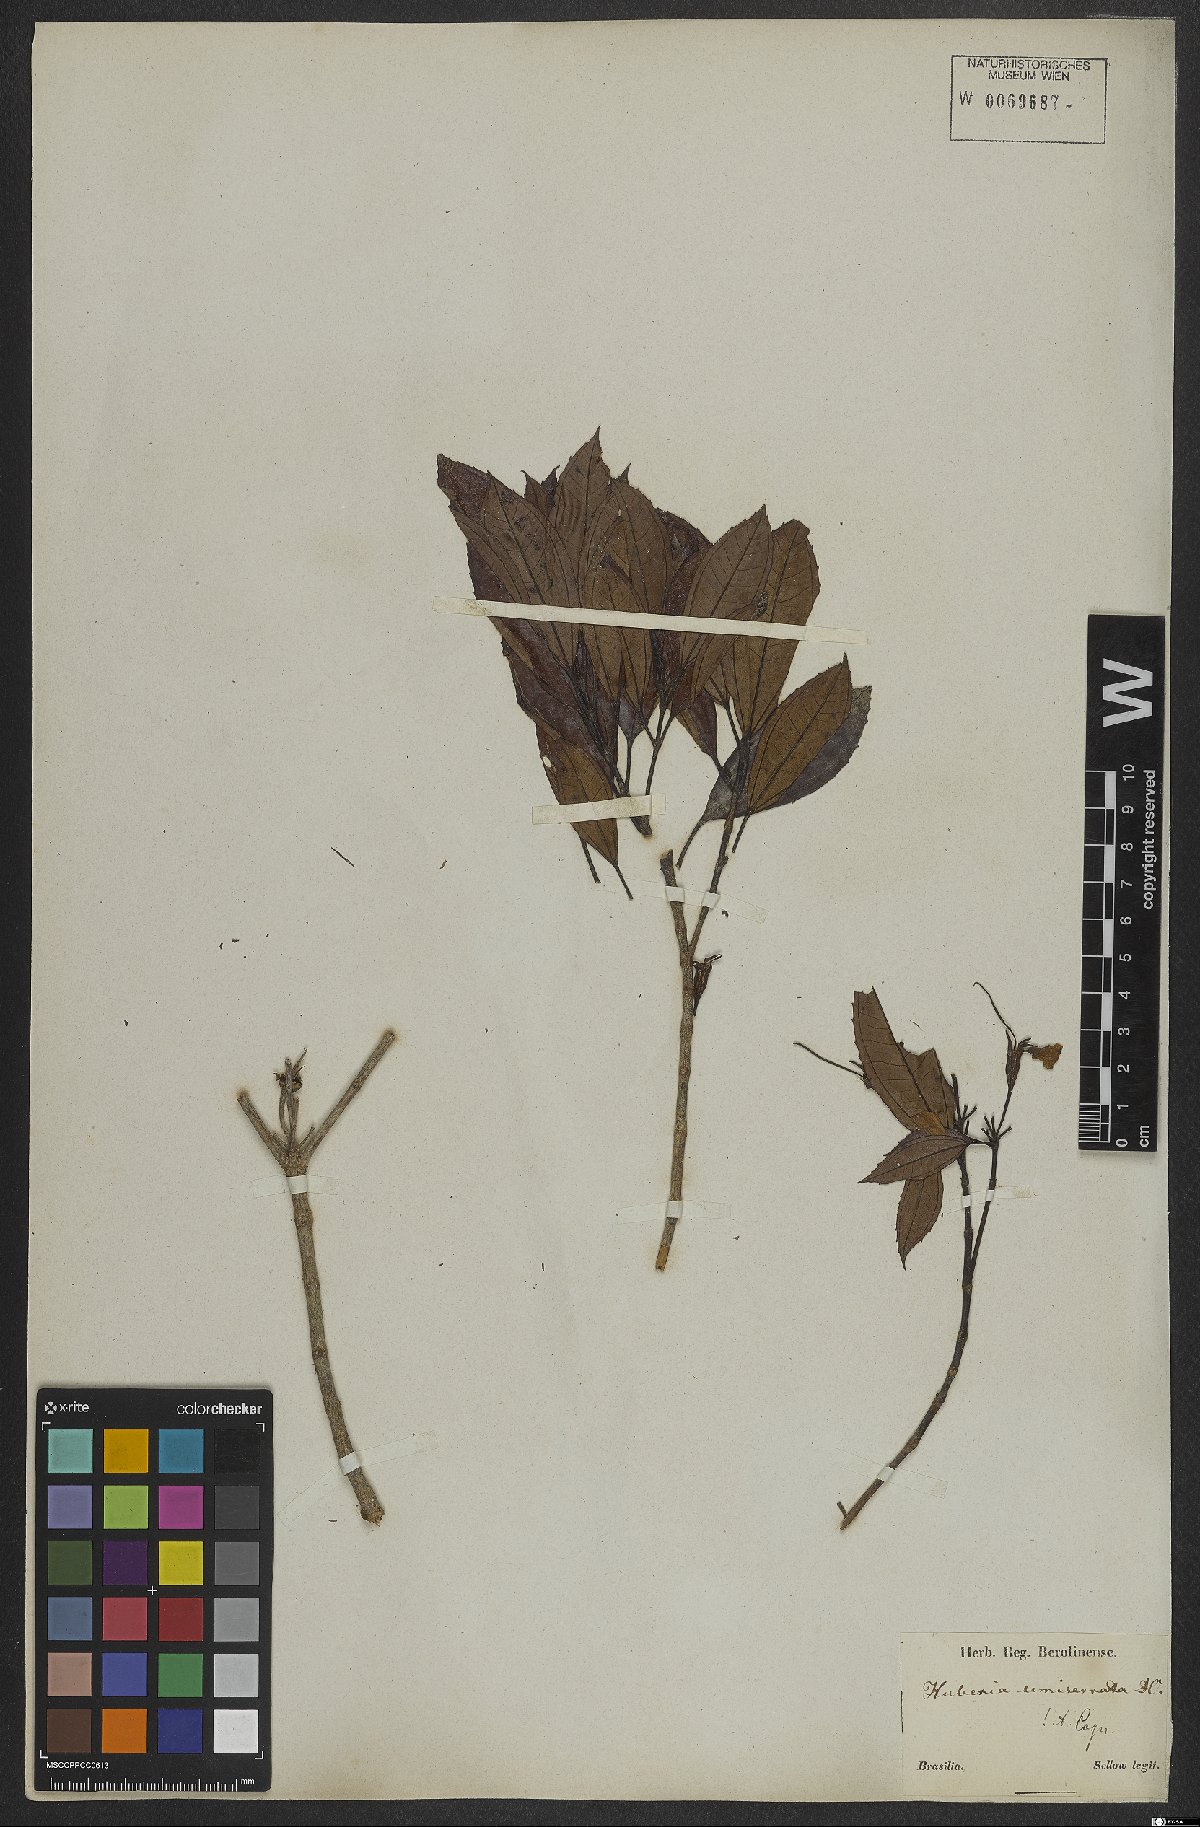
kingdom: Plantae
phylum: Tracheophyta
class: Magnoliopsida
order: Myrtales
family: Melastomataceae
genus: Huberia
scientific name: Huberia semiserrata
